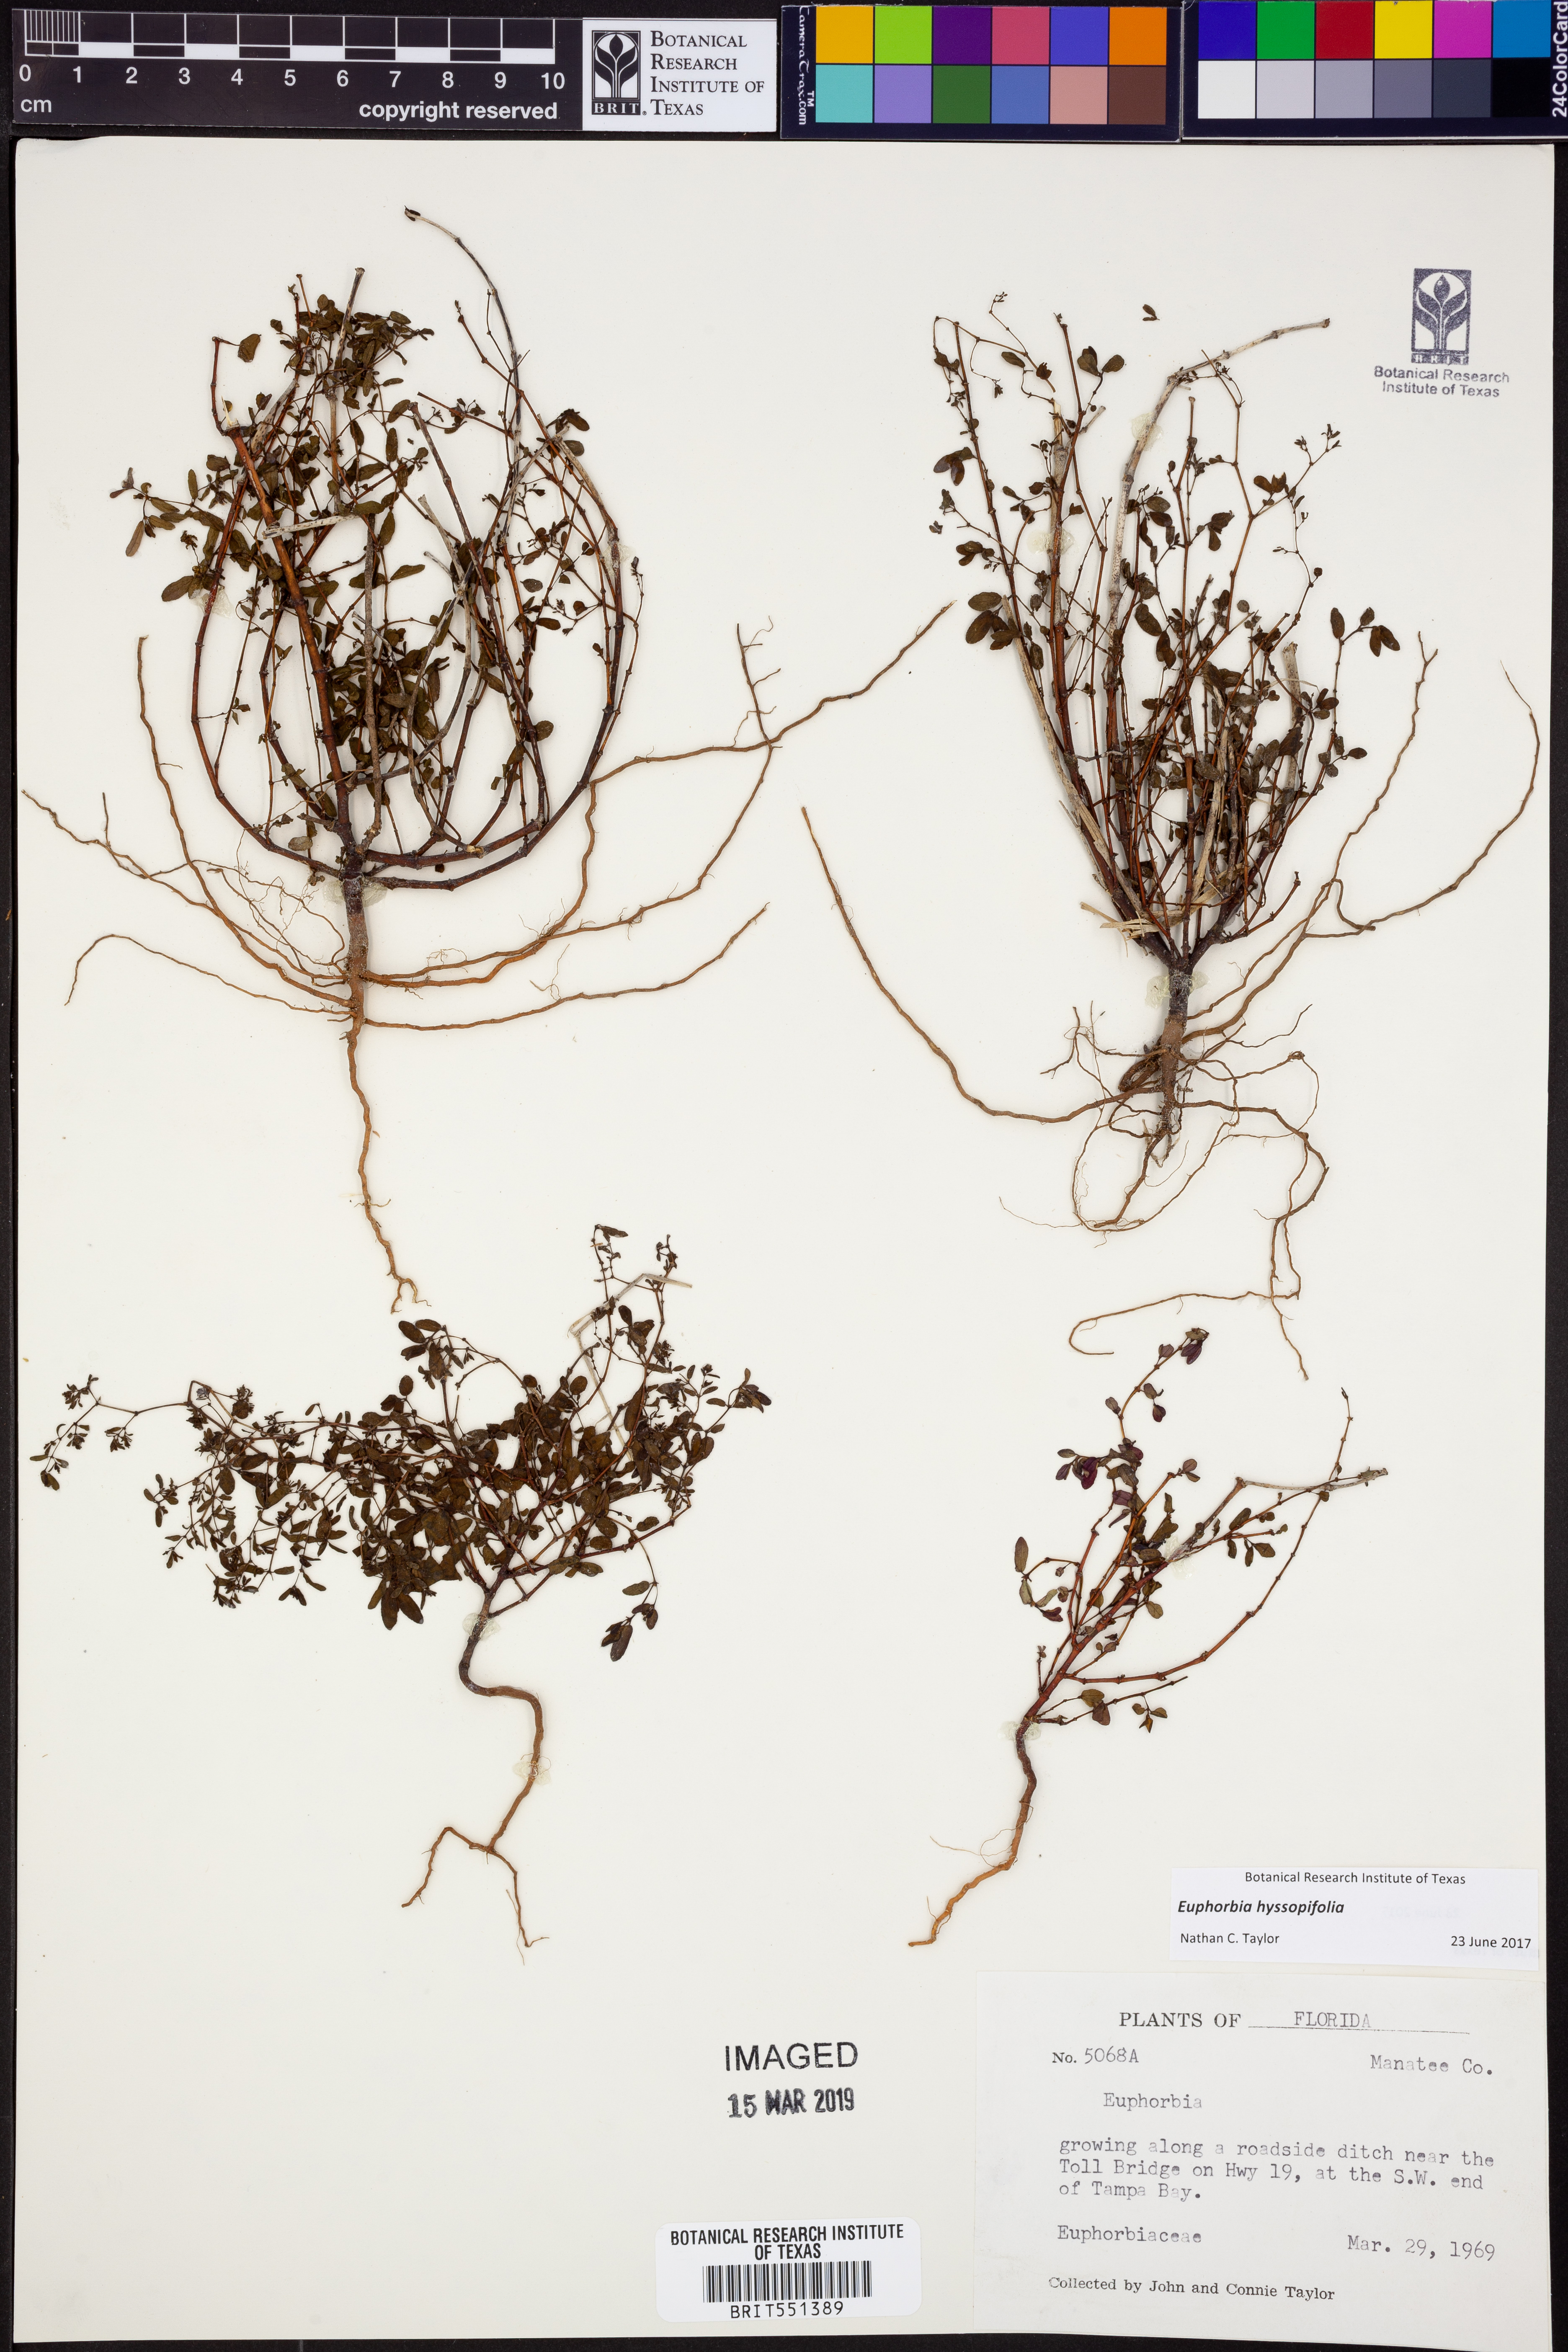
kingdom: Plantae
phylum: Tracheophyta
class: Magnoliopsida
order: Malpighiales
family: Euphorbiaceae
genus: Euphorbia
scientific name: Euphorbia hyssopifolia
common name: Hyssopleaf sandmat
